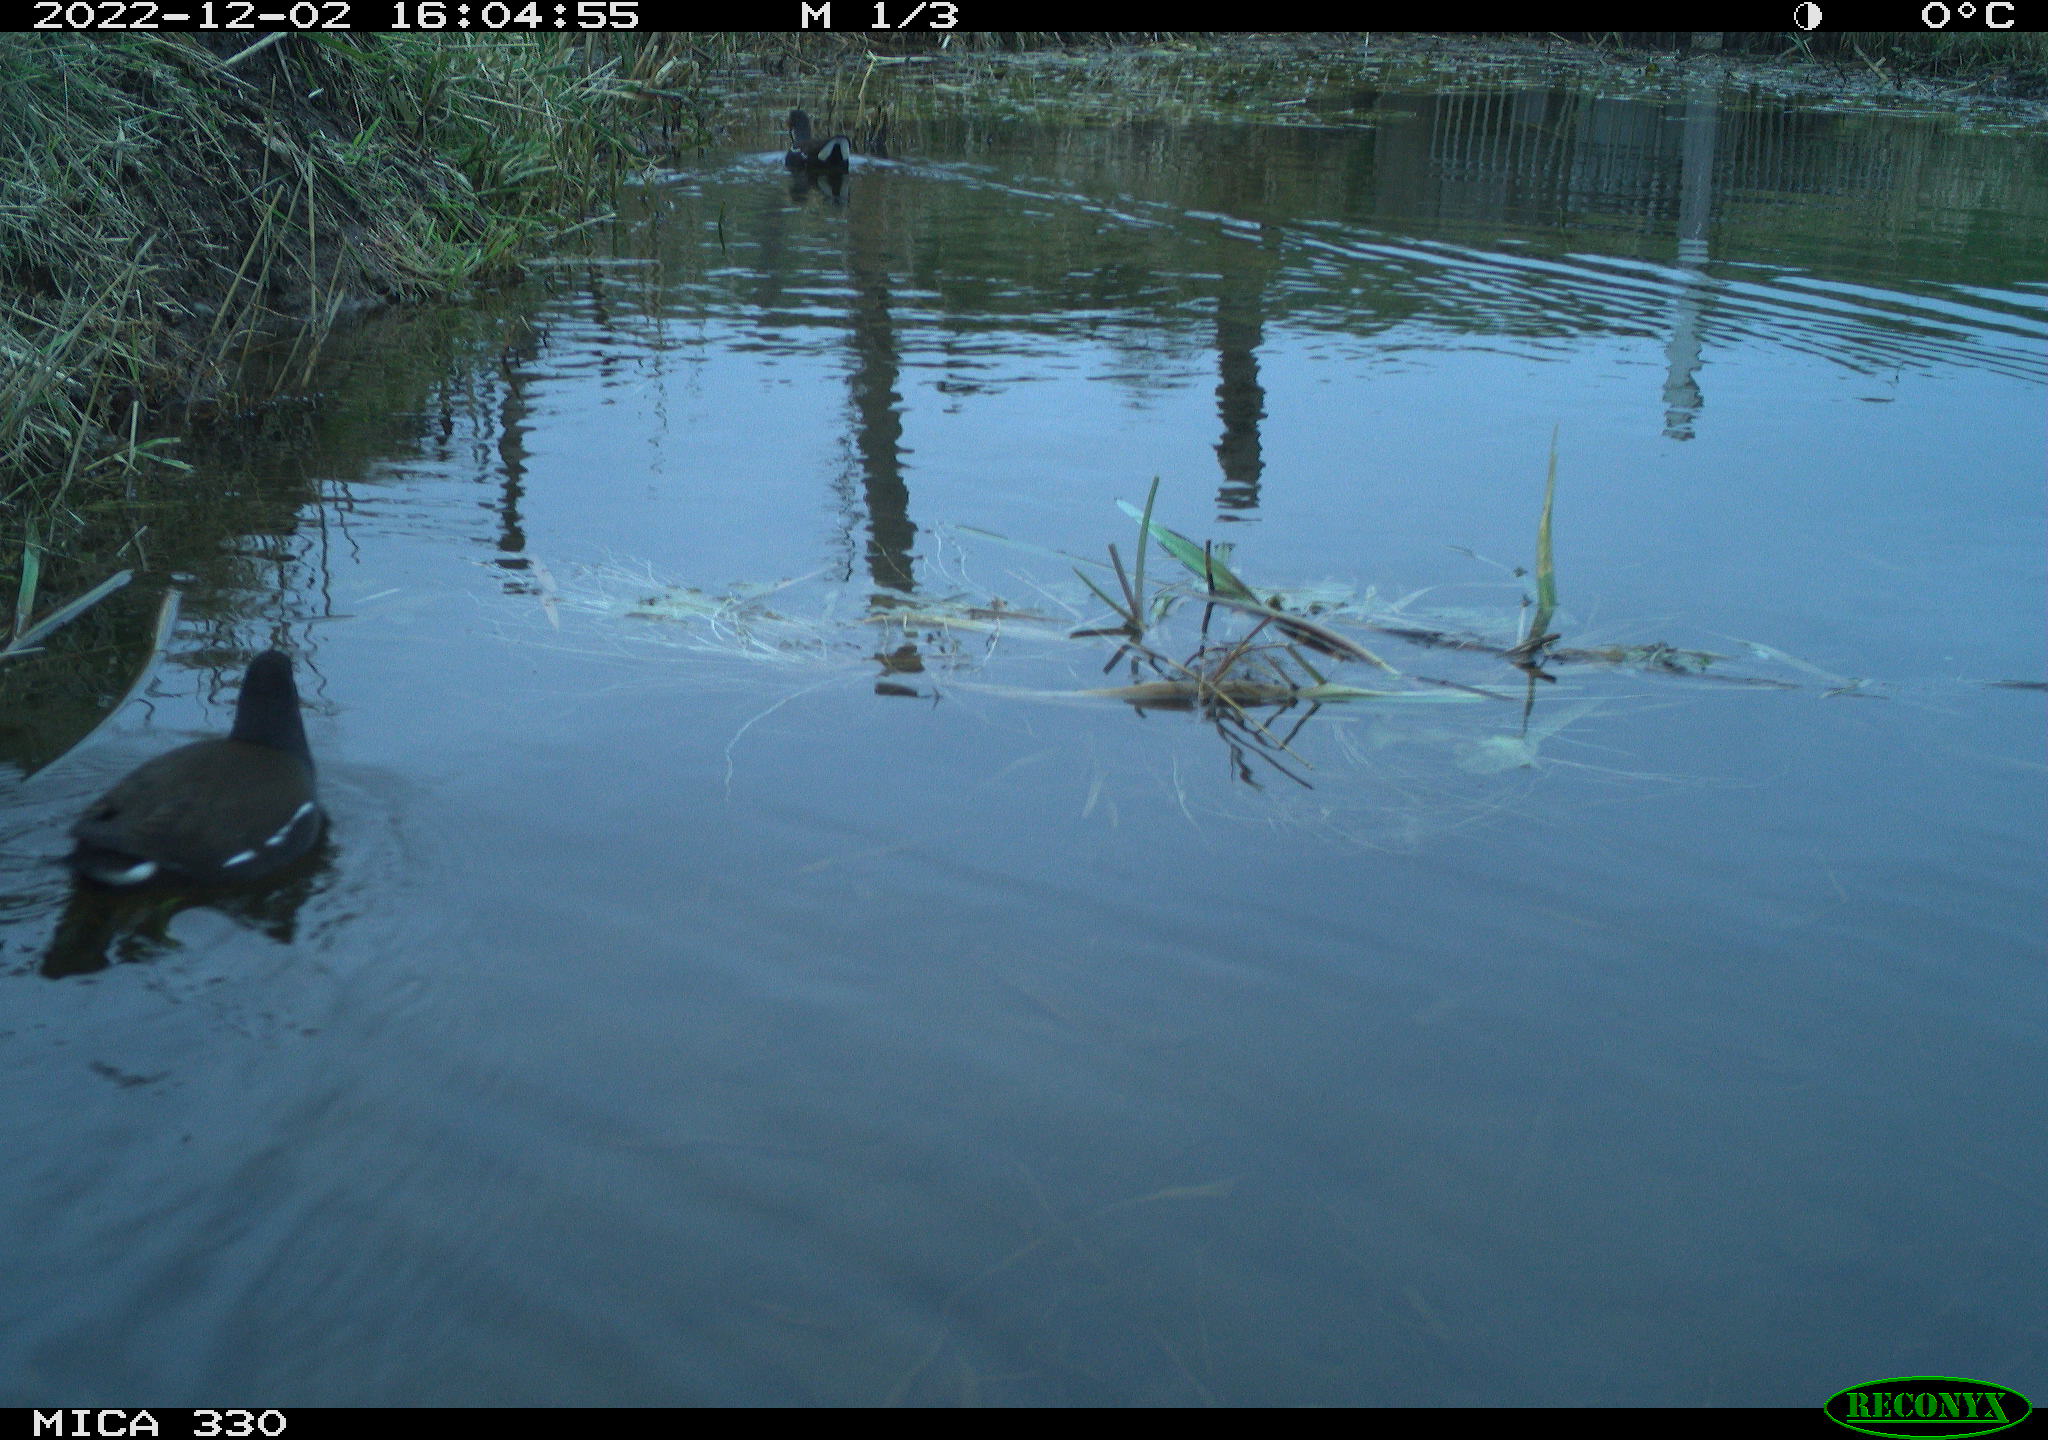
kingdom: Animalia
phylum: Chordata
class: Aves
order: Gruiformes
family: Rallidae
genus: Gallinula
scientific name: Gallinula chloropus
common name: Common moorhen
